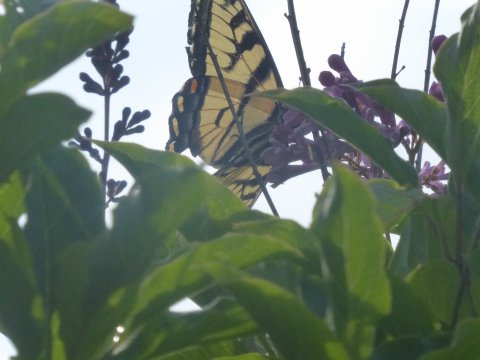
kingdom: Animalia
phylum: Arthropoda
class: Insecta
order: Lepidoptera
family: Papilionidae
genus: Pterourus
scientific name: Pterourus canadensis
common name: Canadian Tiger Swallowtail
